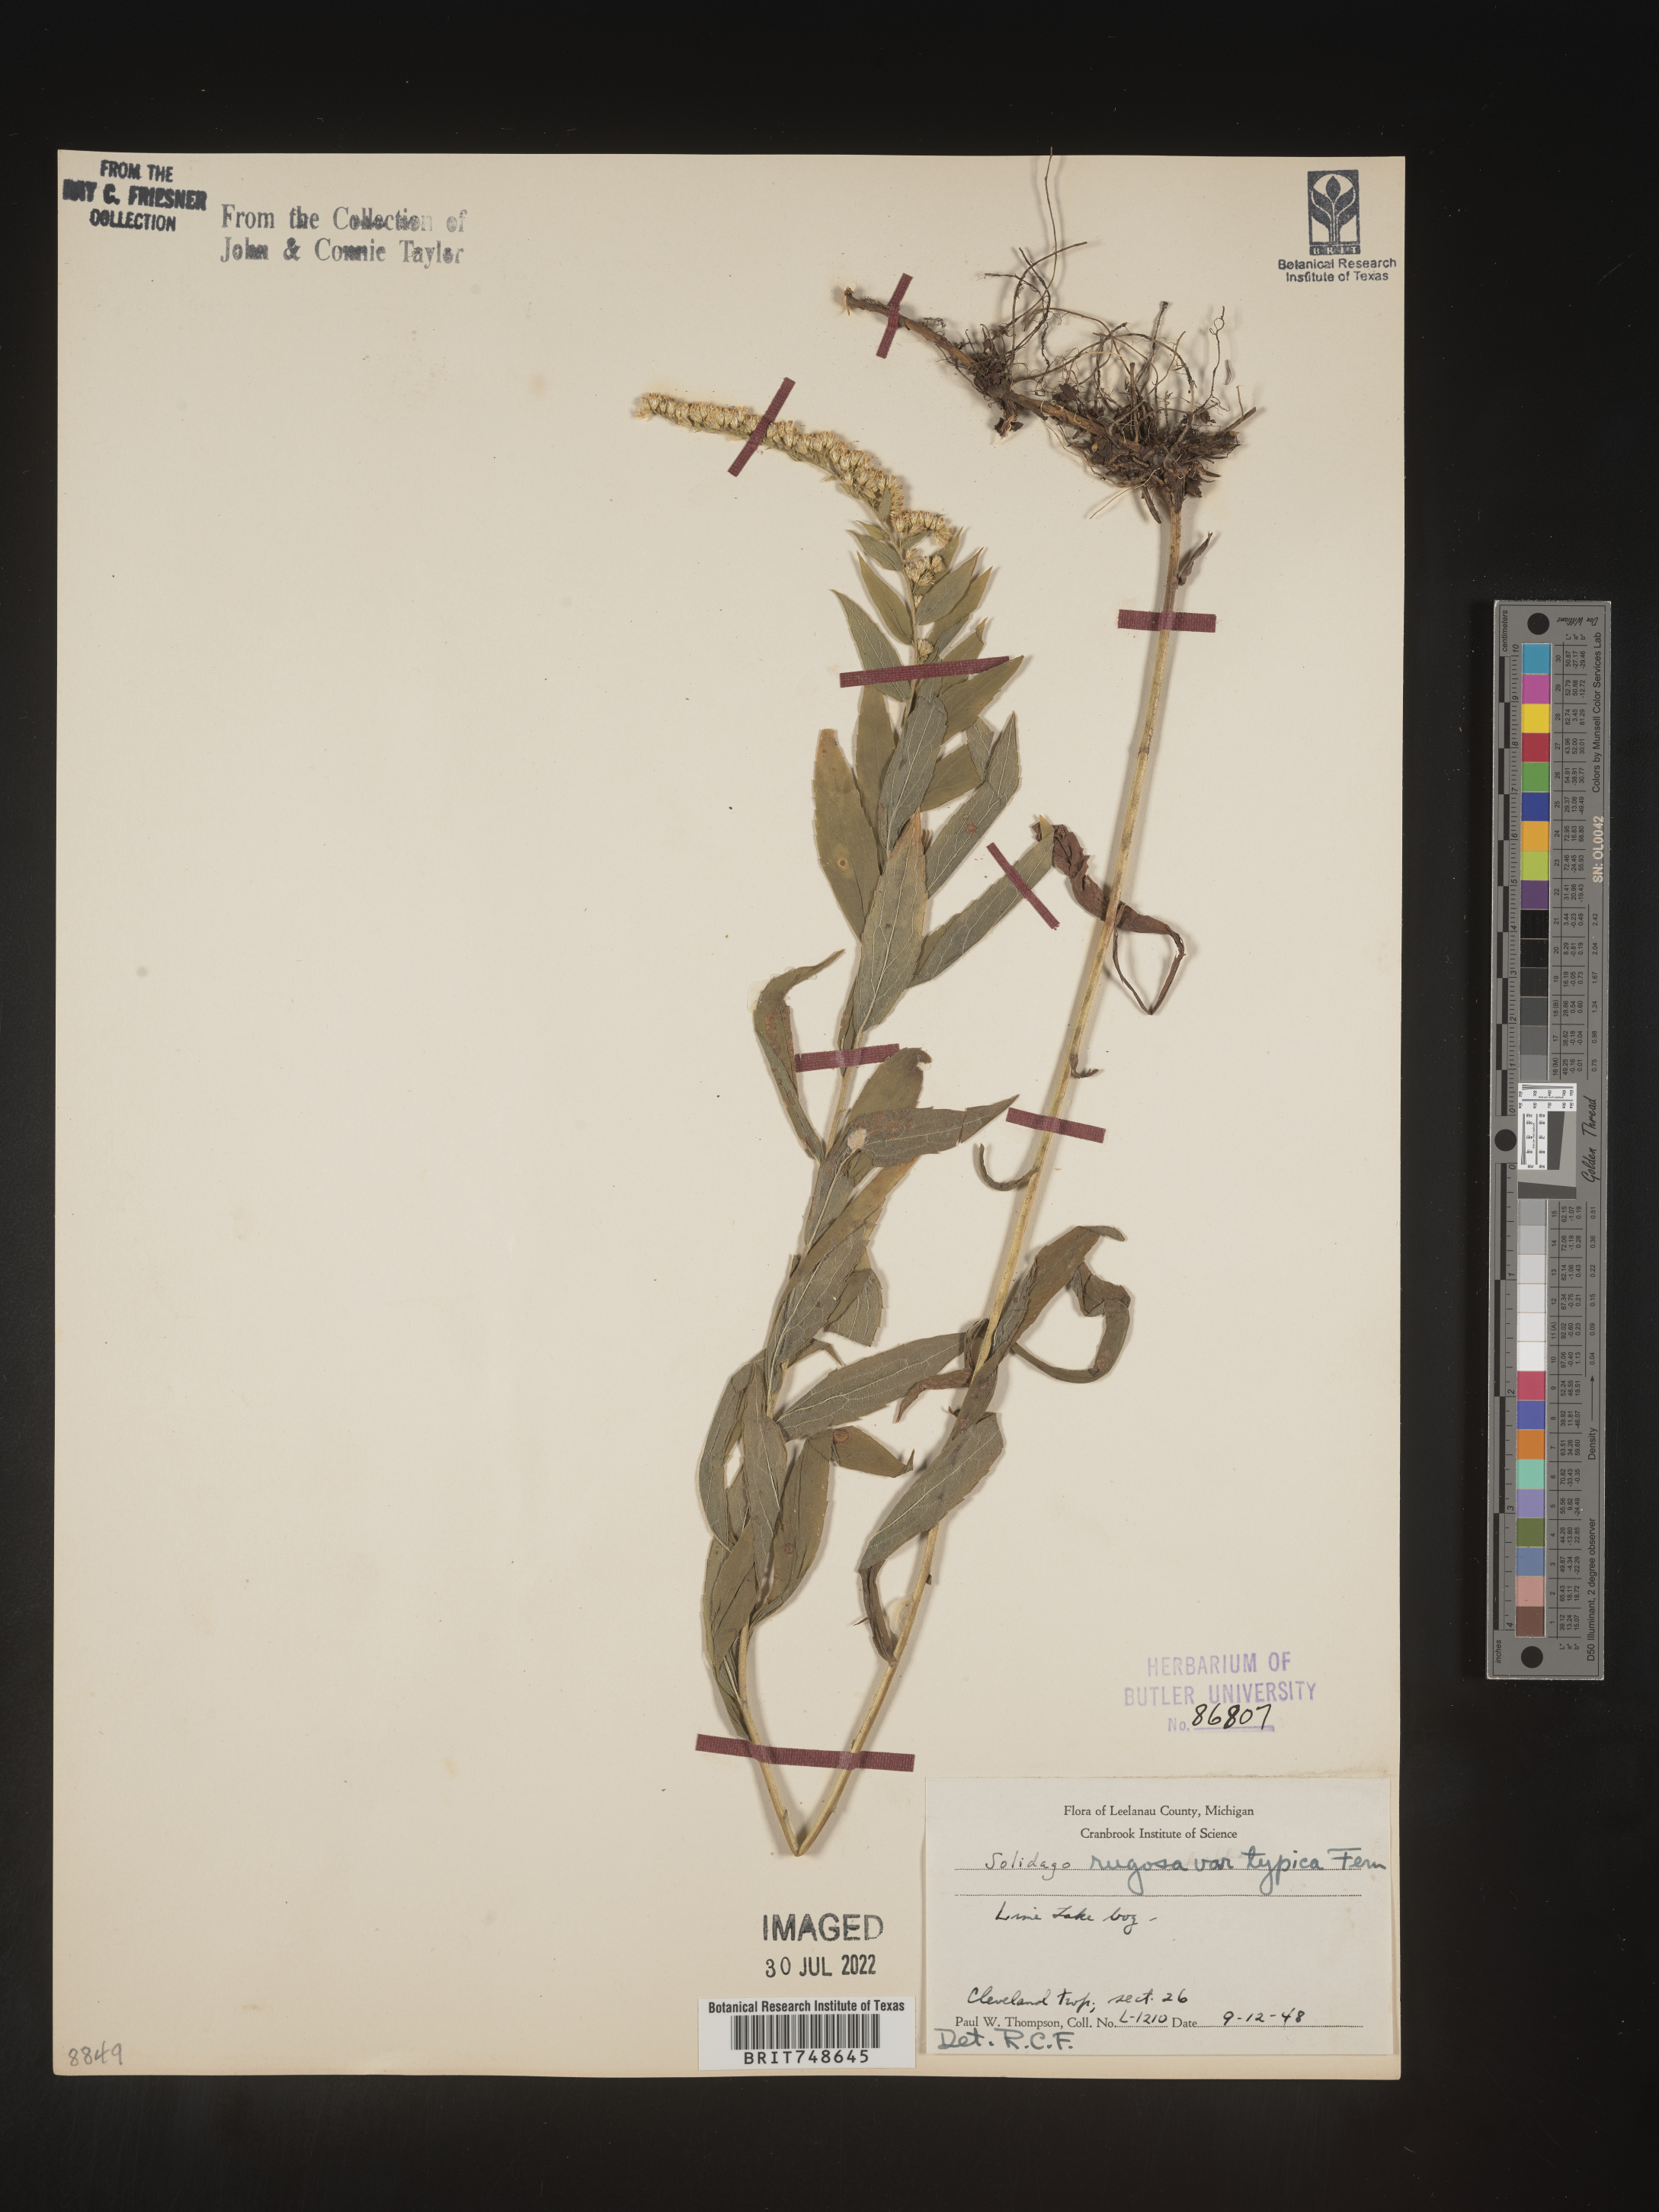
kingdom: Plantae
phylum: Tracheophyta
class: Magnoliopsida
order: Asterales
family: Asteraceae
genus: Solidago
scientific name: Solidago rugosa
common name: Rough-stemmed goldenrod
